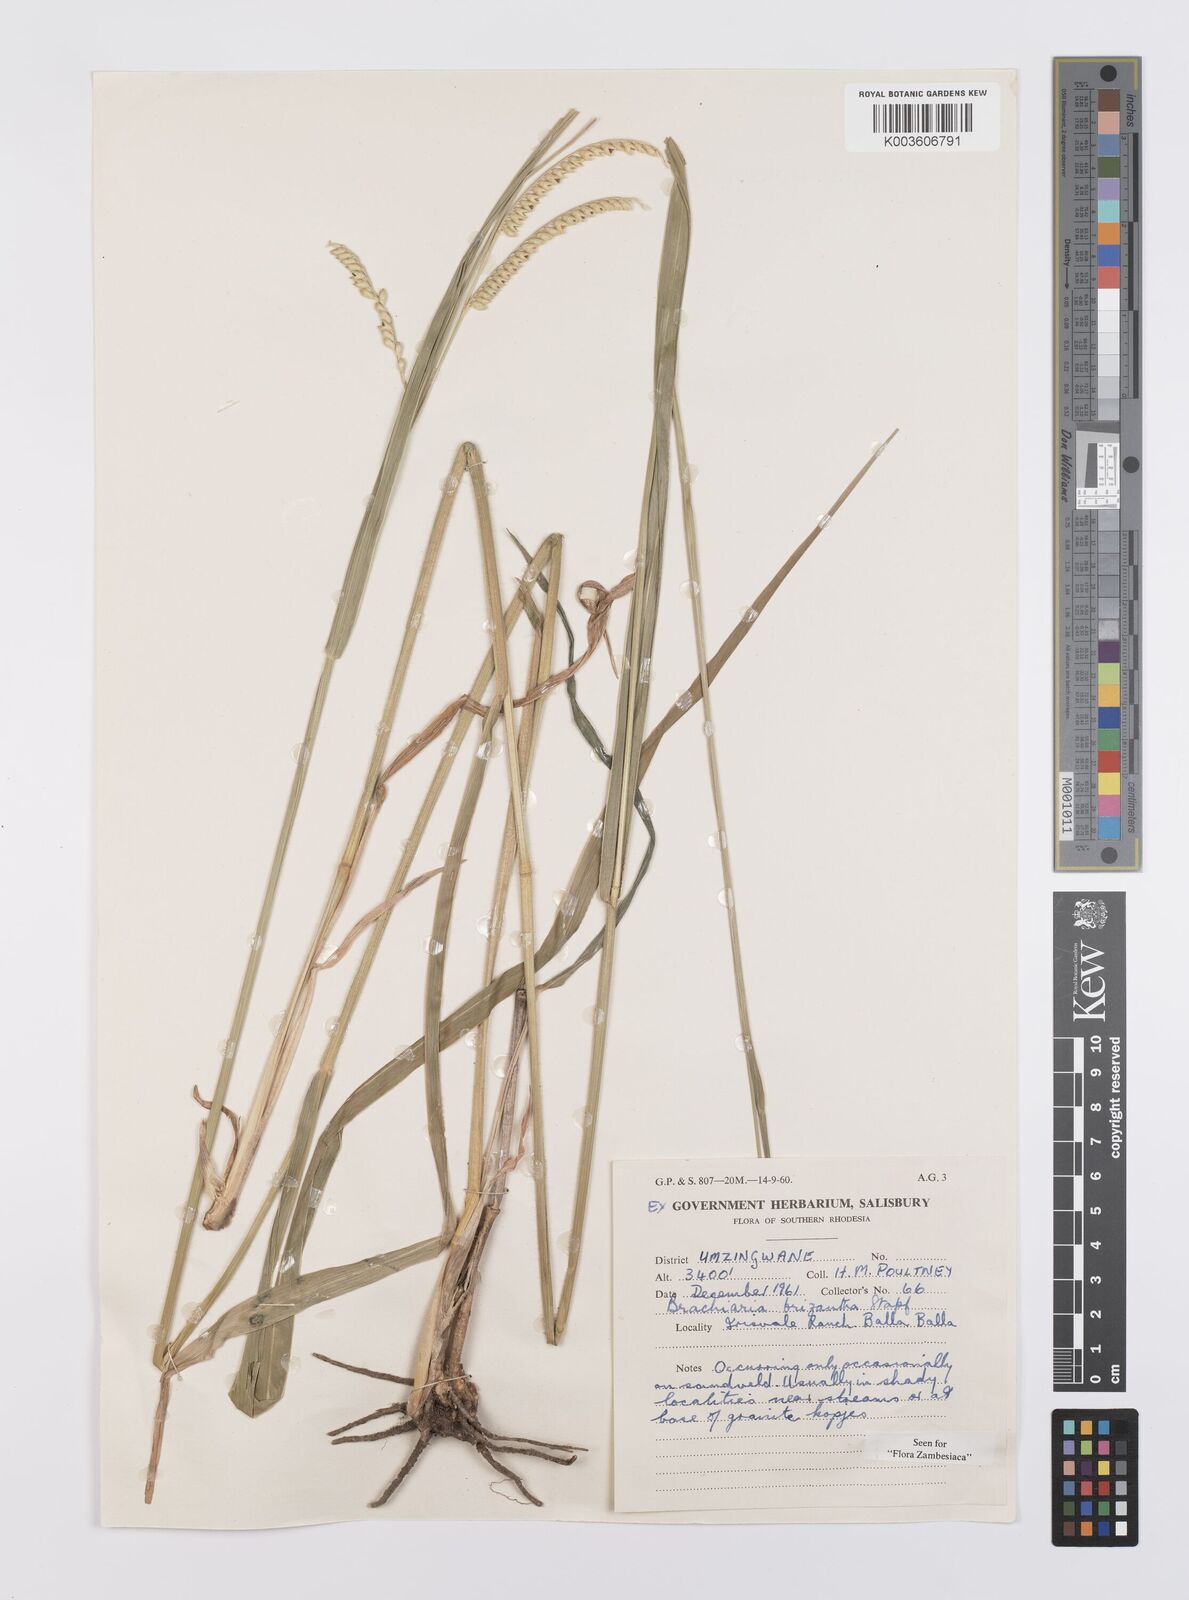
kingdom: Plantae
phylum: Tracheophyta
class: Liliopsida
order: Poales
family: Poaceae
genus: Urochloa
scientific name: Urochloa brizantha
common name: Palisade signalgrass
